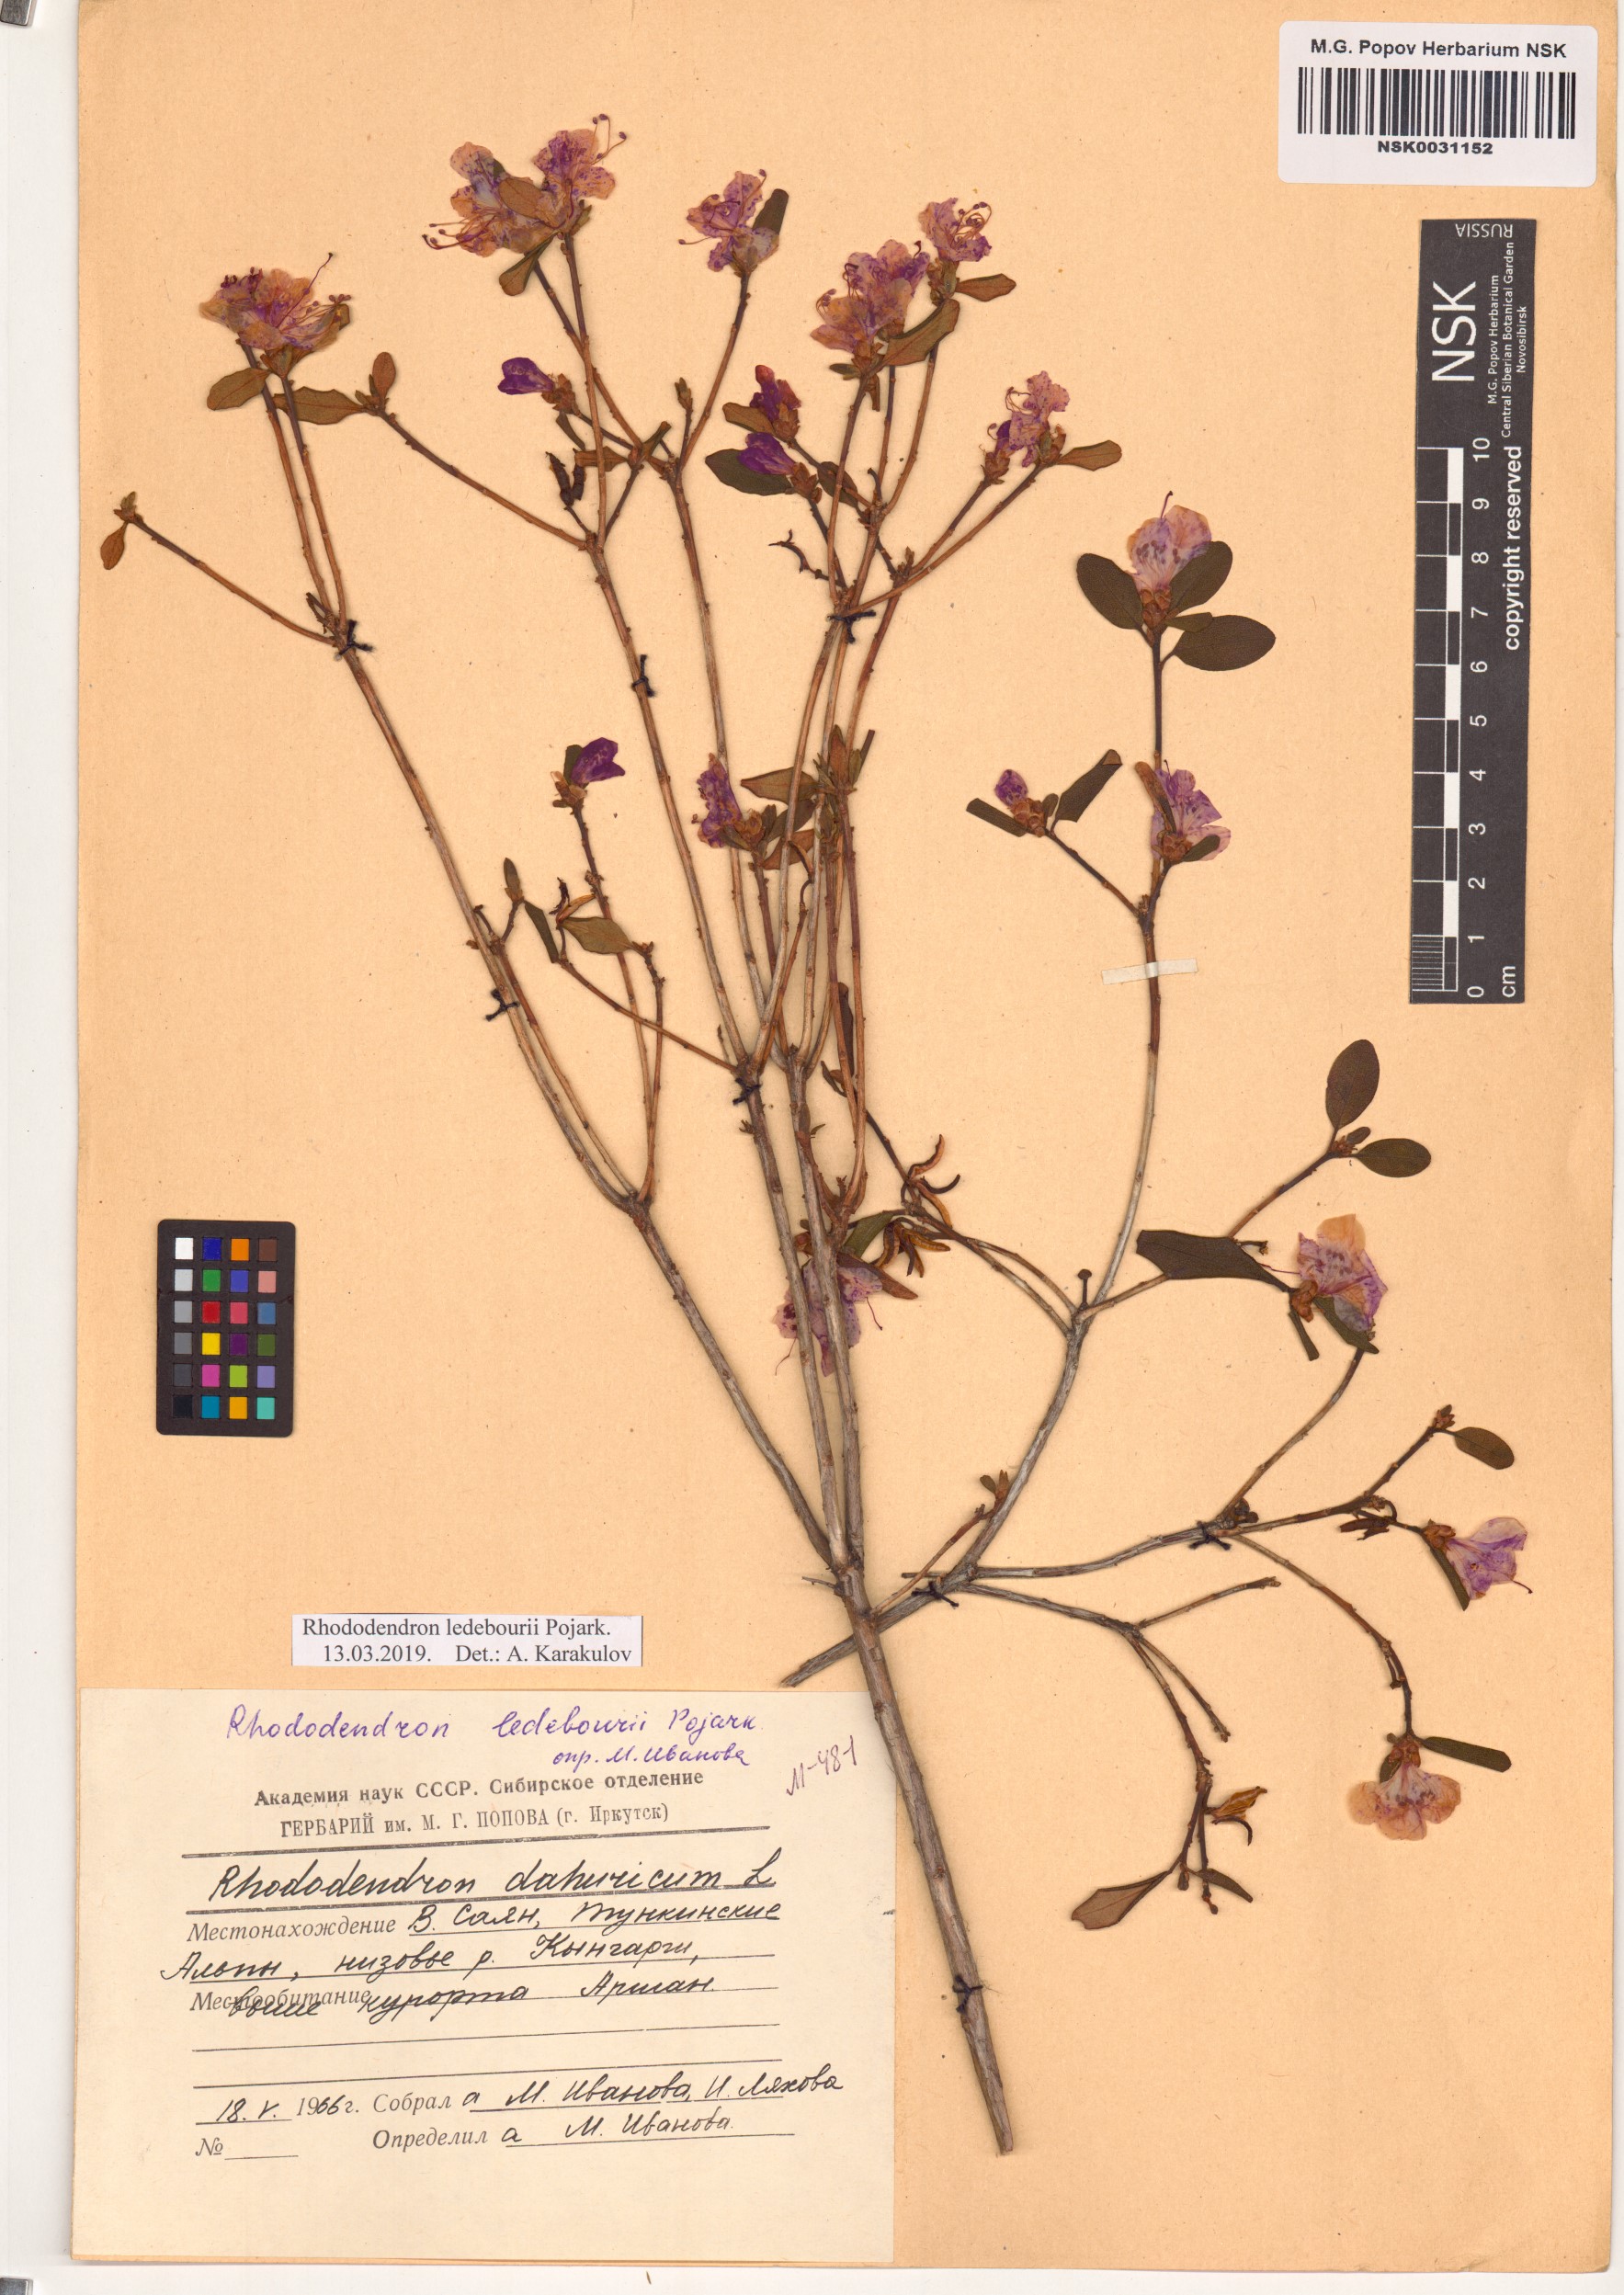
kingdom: Plantae
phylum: Tracheophyta
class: Magnoliopsida
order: Ericales
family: Ericaceae
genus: Rhododendron
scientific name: Rhododendron dauricum
